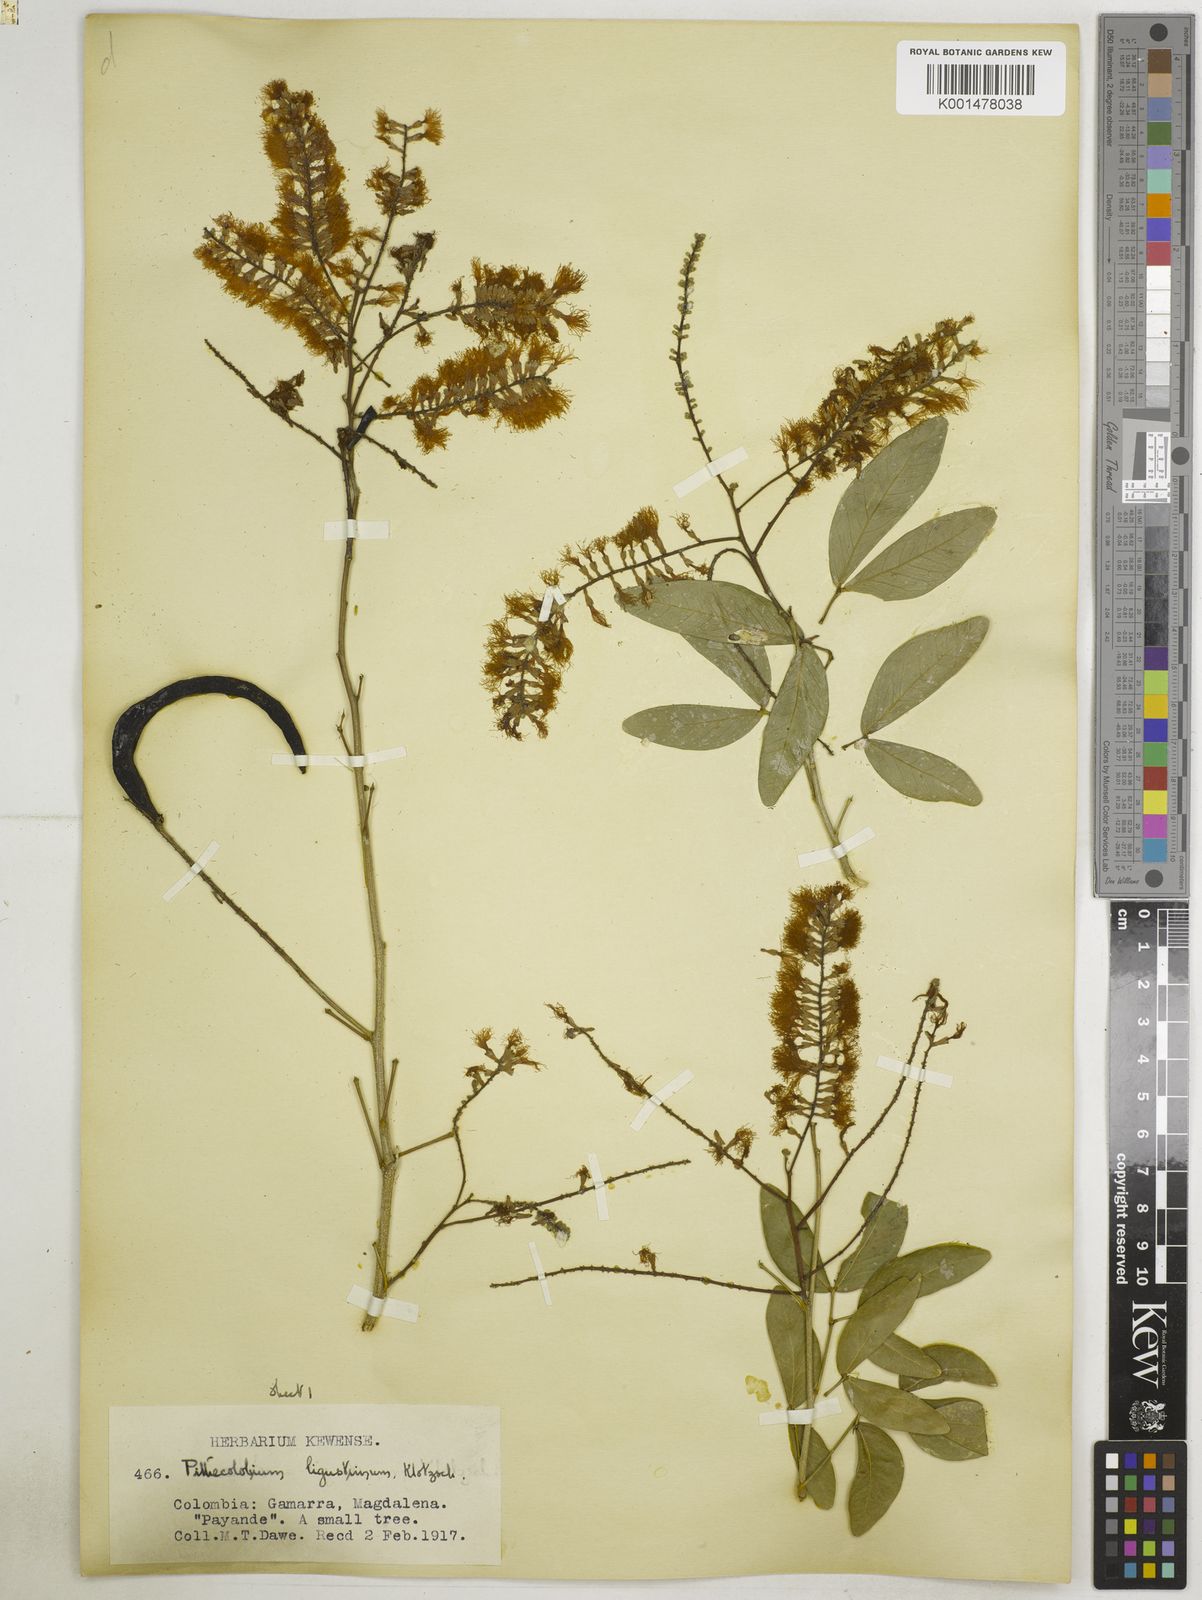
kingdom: Plantae
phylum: Tracheophyta
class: Magnoliopsida
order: Fabales
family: Fabaceae
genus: Pithecellobium
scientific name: Pithecellobium lanceolatum
